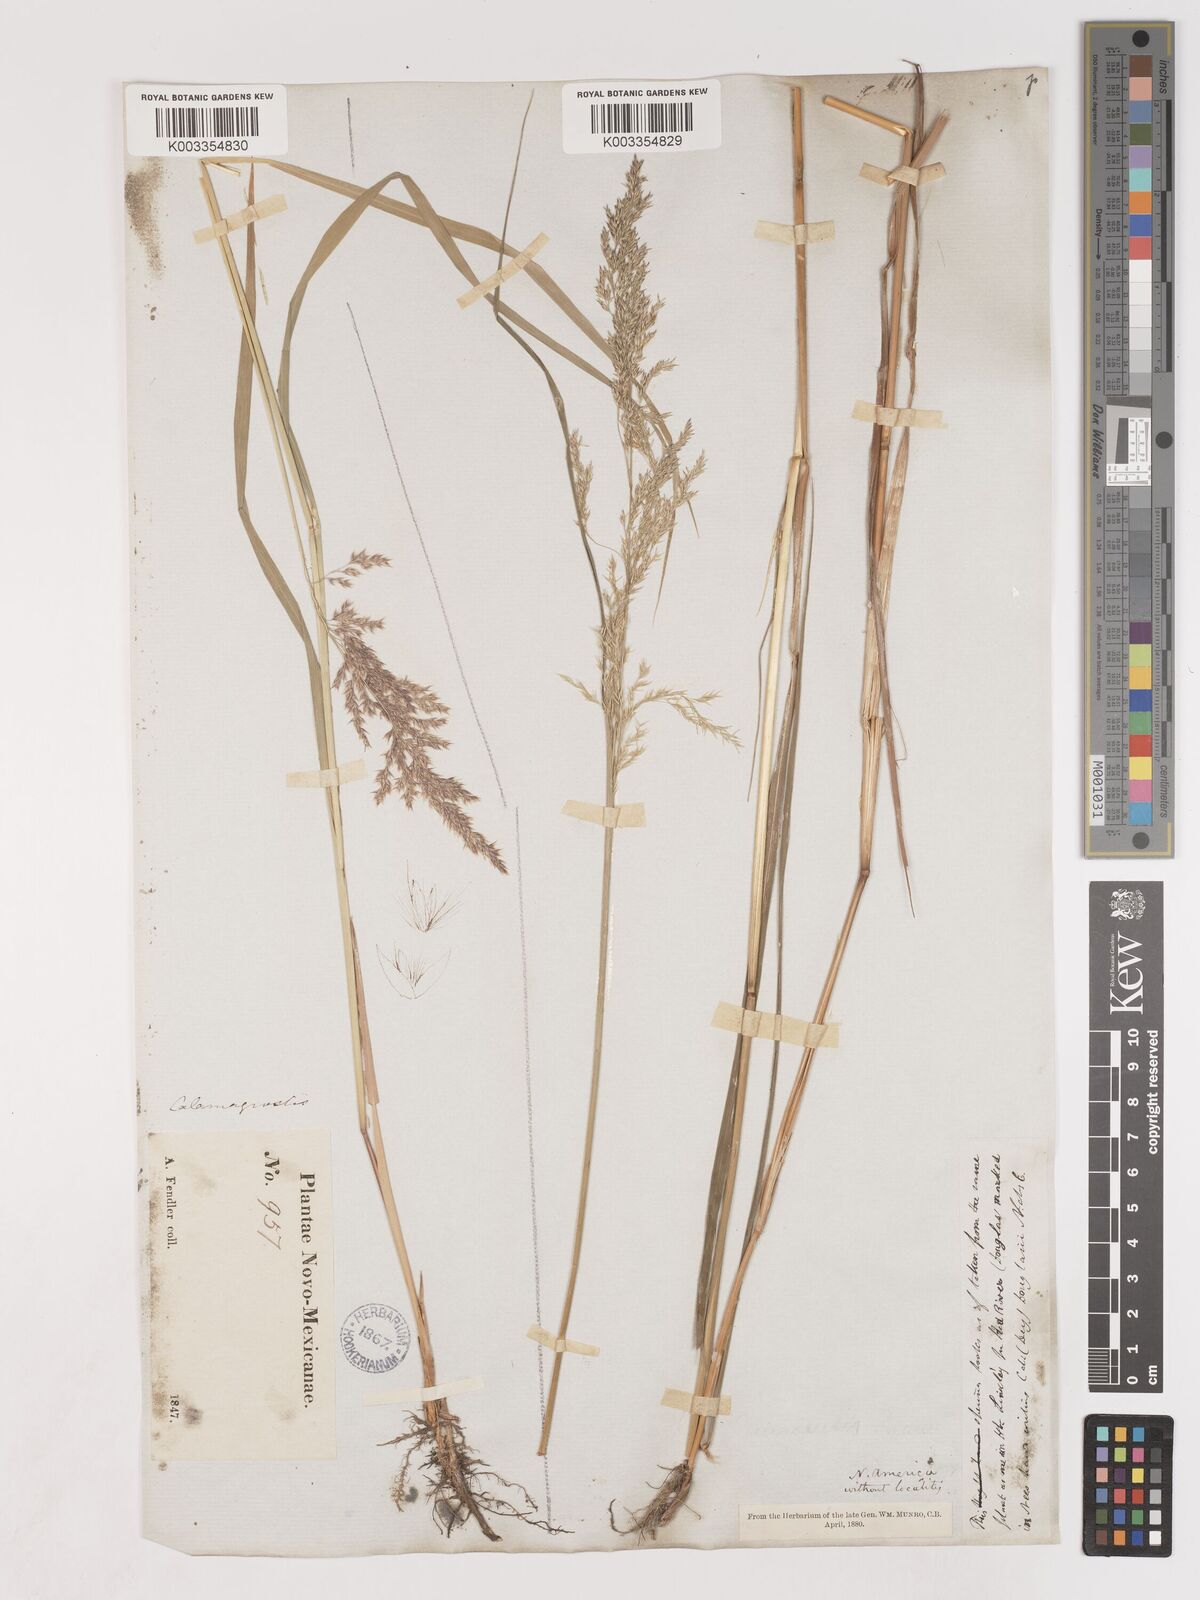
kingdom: Plantae
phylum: Tracheophyta
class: Liliopsida
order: Poales
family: Poaceae
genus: Calamagrostis
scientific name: Calamagrostis
